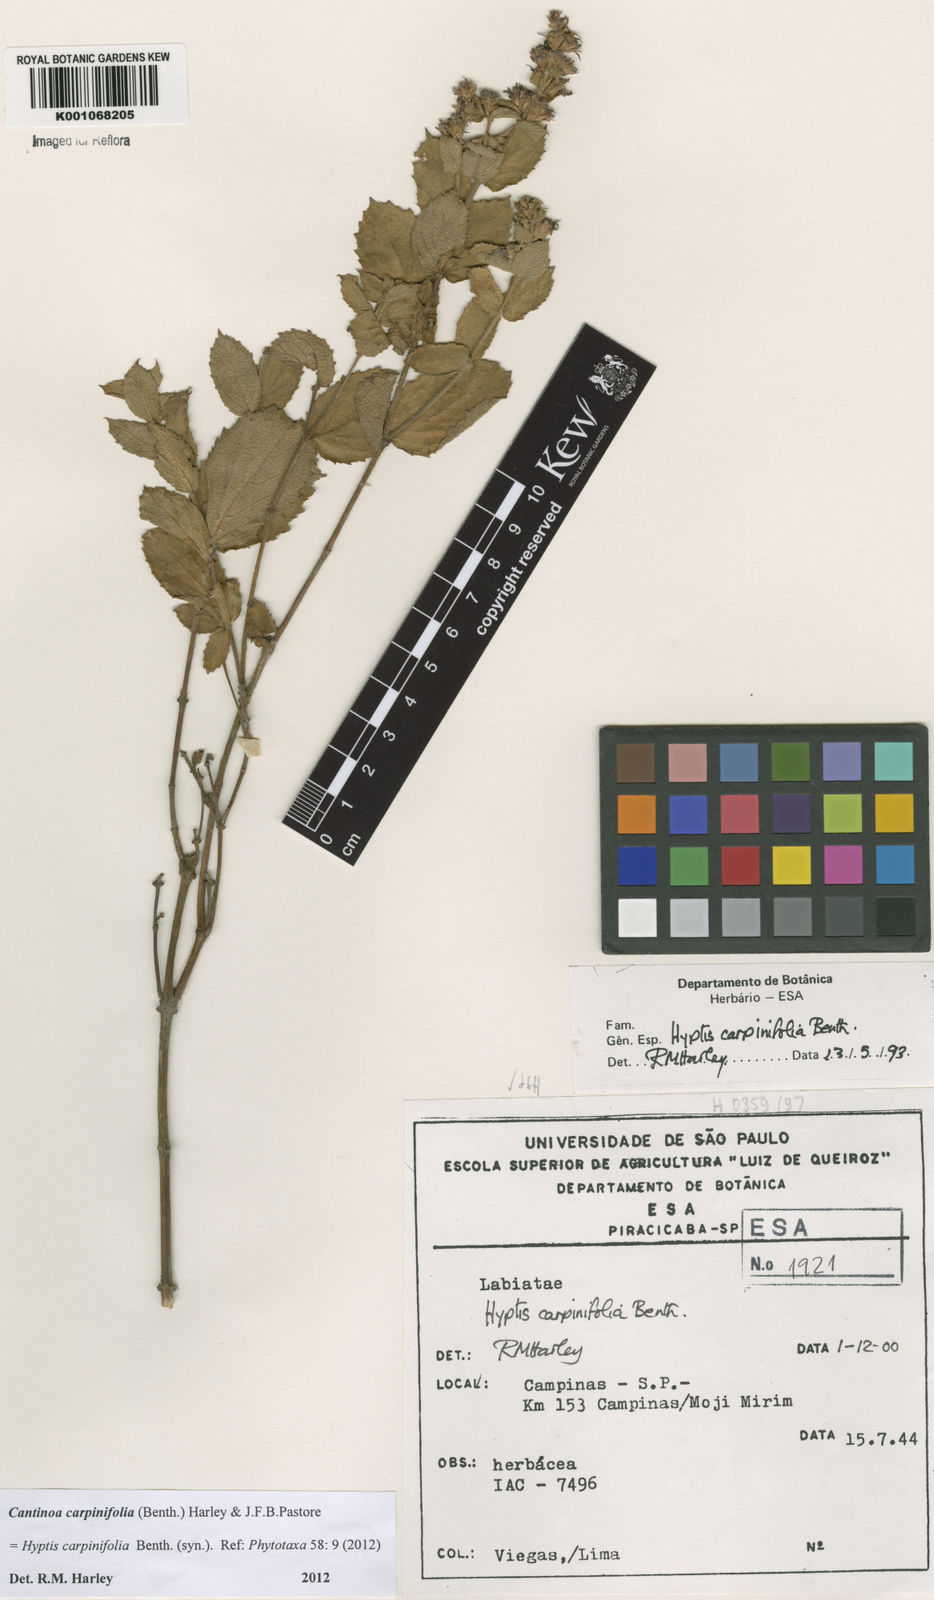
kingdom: Plantae
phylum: Tracheophyta
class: Magnoliopsida
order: Lamiales
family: Lamiaceae
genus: Cantinoa
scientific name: Cantinoa carpinifolia
